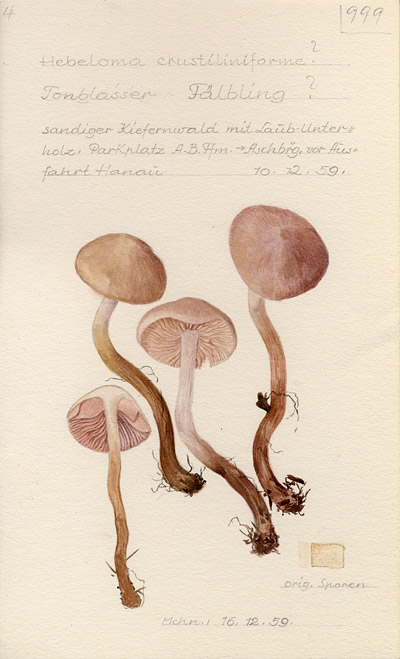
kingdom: Fungi
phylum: Basidiomycota
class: Agaricomycetes
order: Agaricales
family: Hymenogastraceae
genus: Hebeloma
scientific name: Hebeloma crustuliniforme
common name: Poison pie
